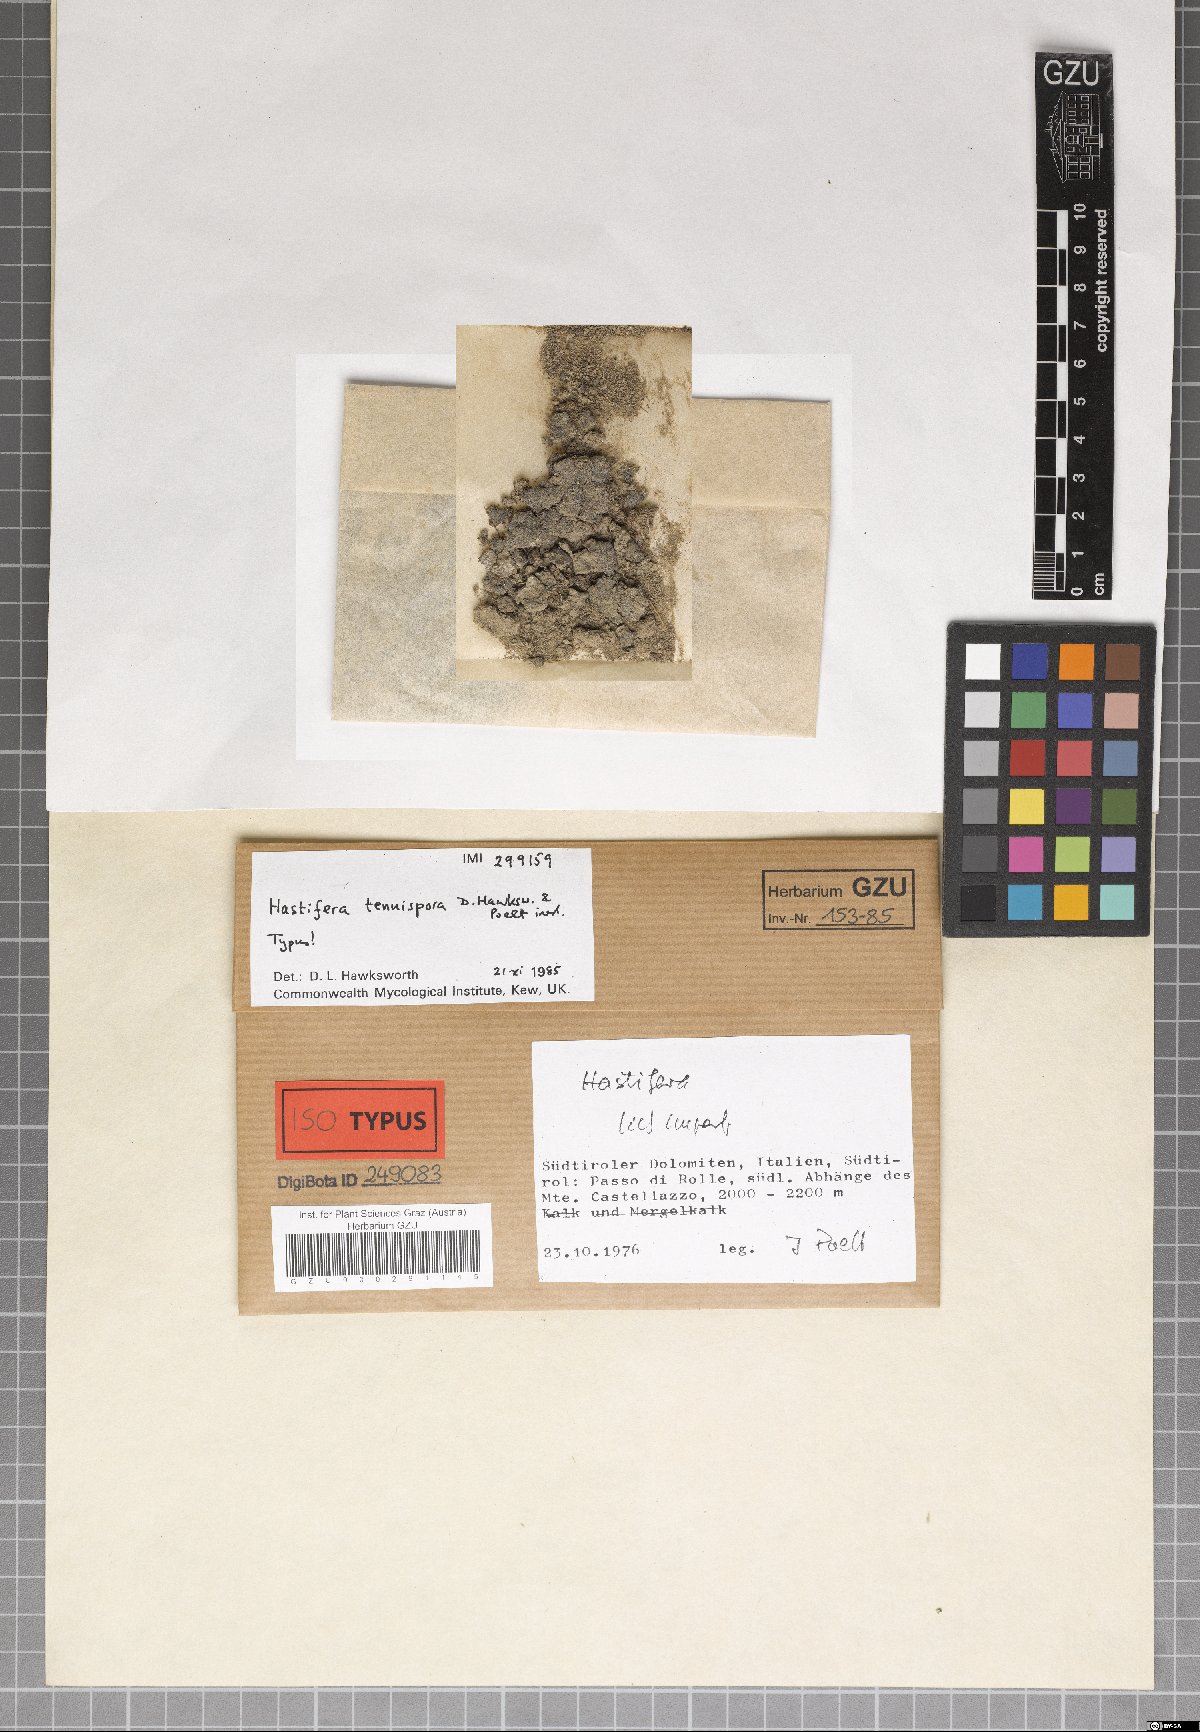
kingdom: Fungi
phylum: Ascomycota
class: Lecanoromycetes
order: Lecanorales
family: Byssolomataceae
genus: Micarea
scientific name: Micarea cinerea
